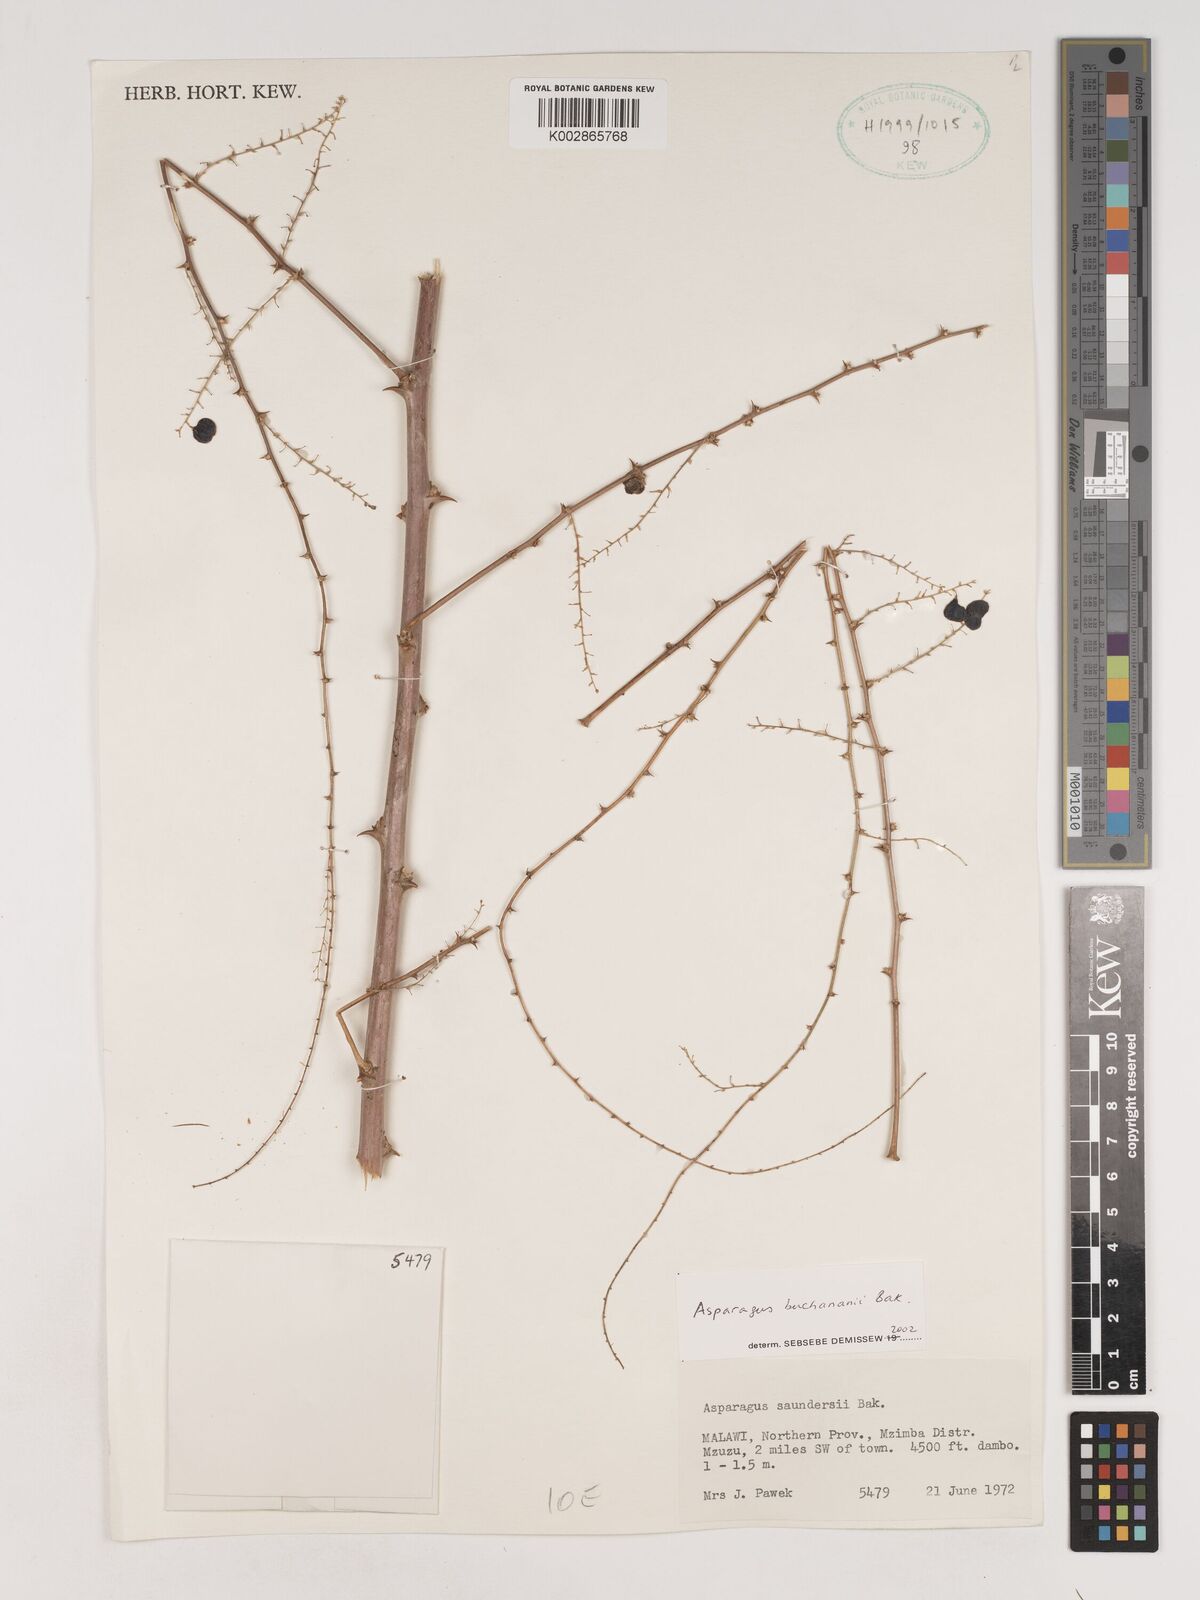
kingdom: Plantae
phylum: Tracheophyta
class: Liliopsida
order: Asparagales
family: Asparagaceae
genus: Asparagus
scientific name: Asparagus buchananii
